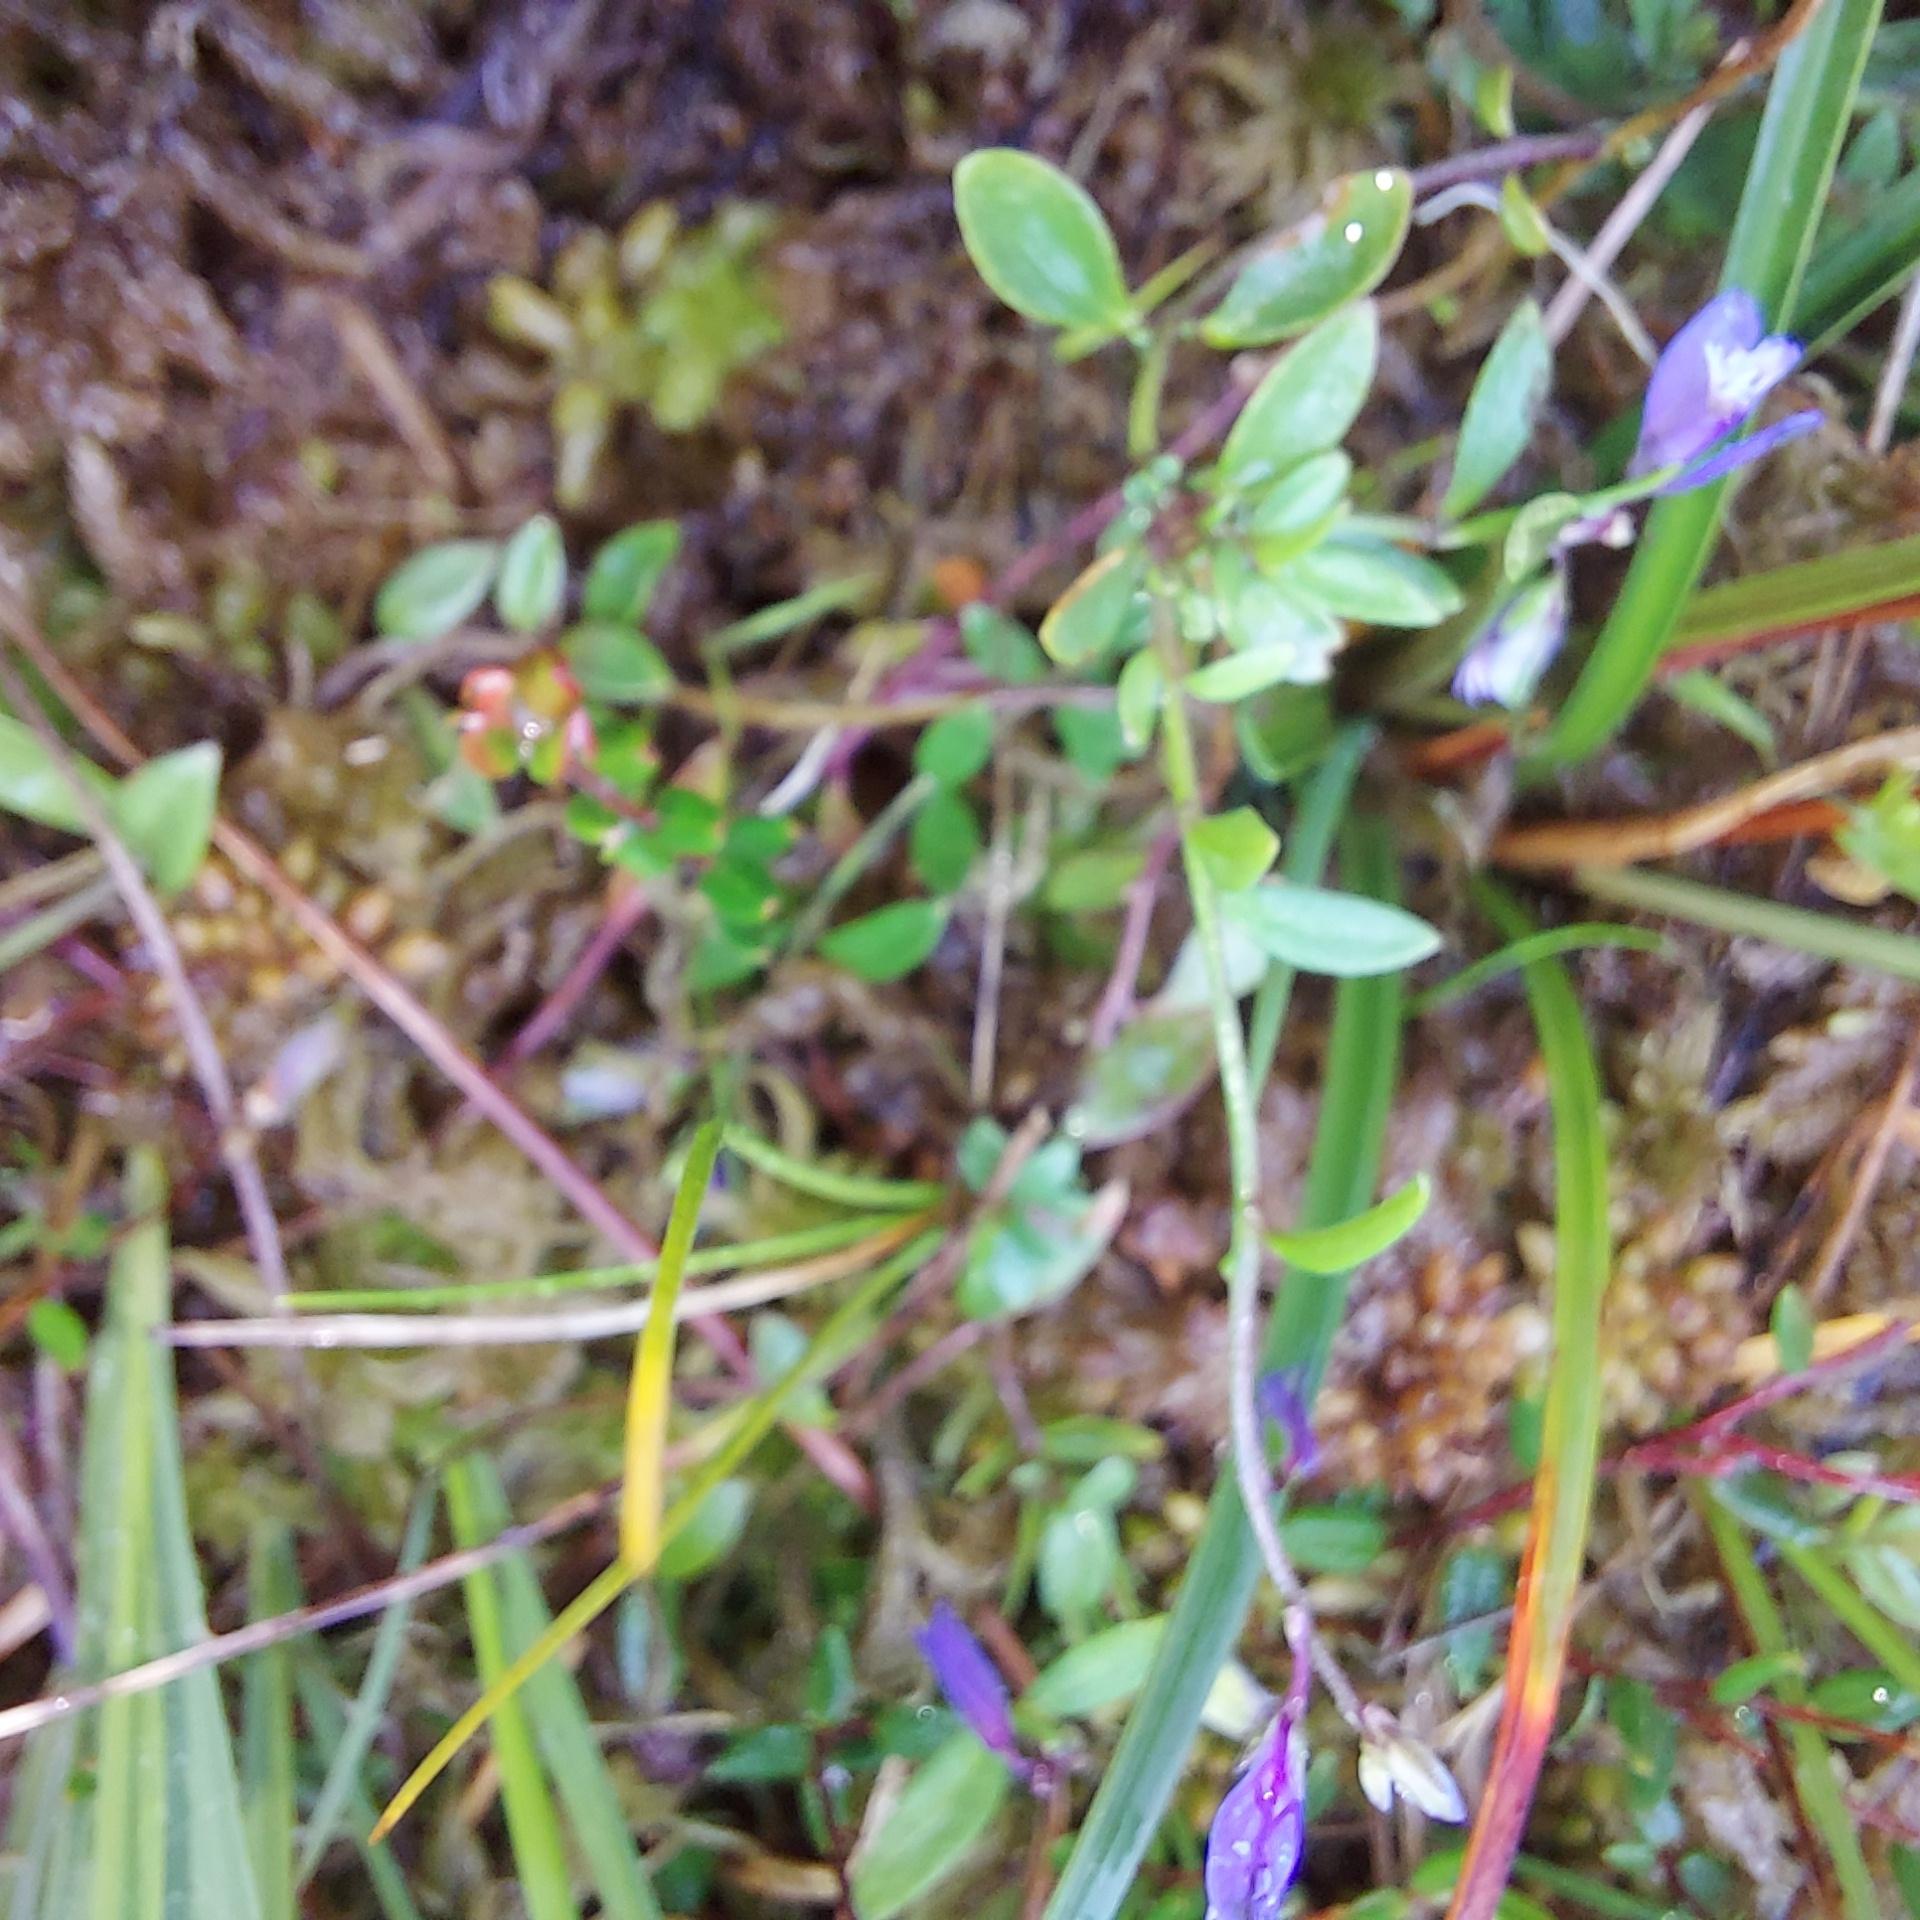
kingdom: Plantae
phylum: Tracheophyta
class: Magnoliopsida
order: Fabales
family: Polygalaceae
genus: Polygala
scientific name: Polygala serpyllifolia
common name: Spæd mælkeurt
